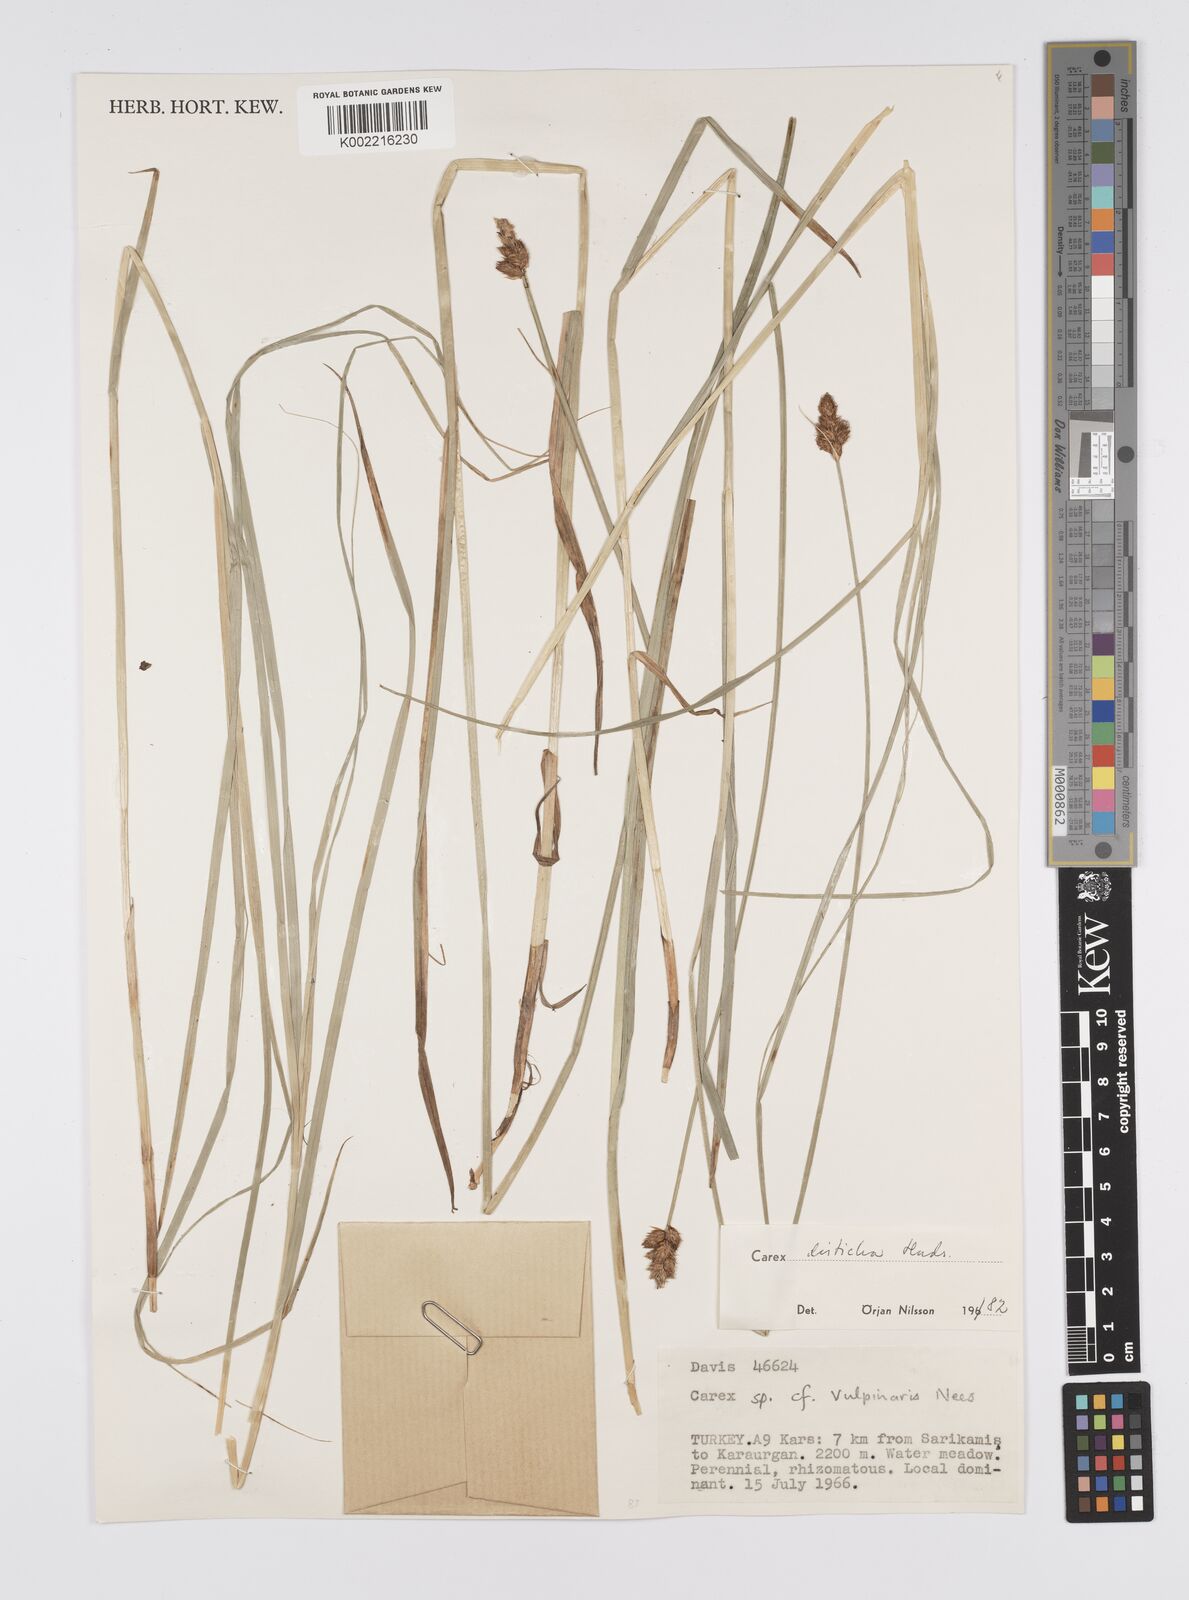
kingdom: Plantae
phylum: Tracheophyta
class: Liliopsida
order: Poales
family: Cyperaceae
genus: Carex
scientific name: Carex disticha
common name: Brown sedge
